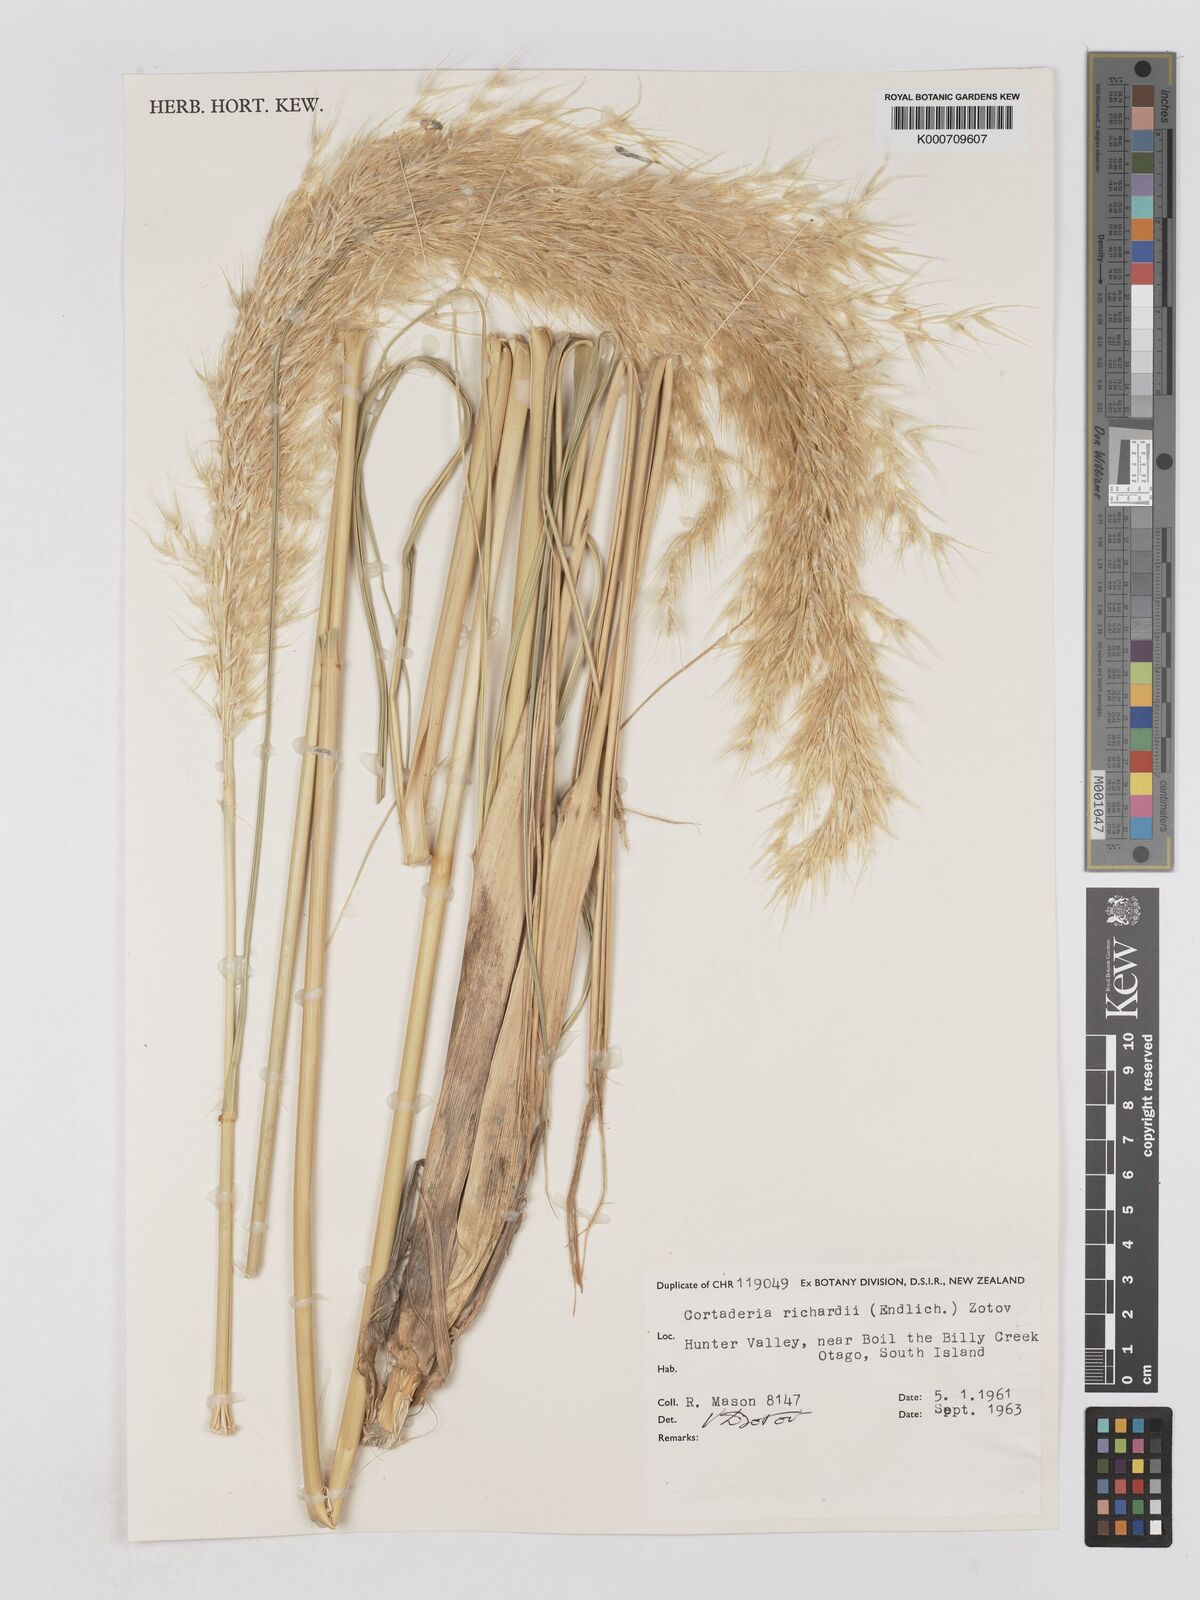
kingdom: Plantae
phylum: Tracheophyta
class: Liliopsida
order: Poales
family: Poaceae
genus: Austroderia
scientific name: Austroderia richardii
